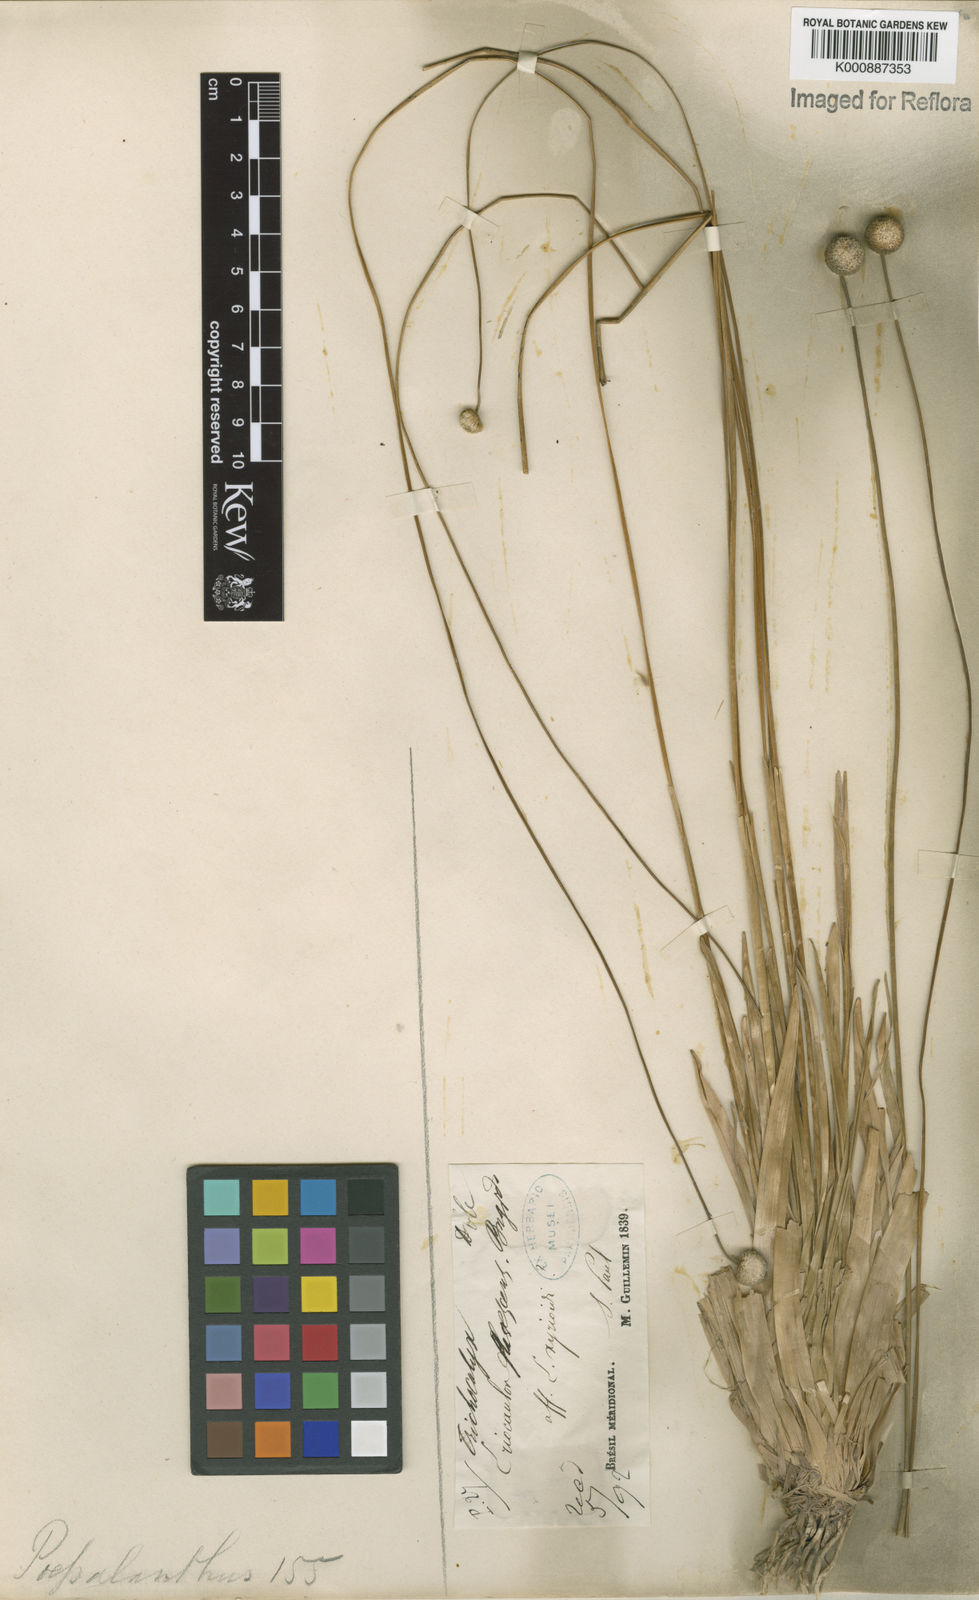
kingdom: Plantae
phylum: Tracheophyta
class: Liliopsida
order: Poales
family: Eriocaulaceae
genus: Leiothrix
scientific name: Leiothrix flavescens
